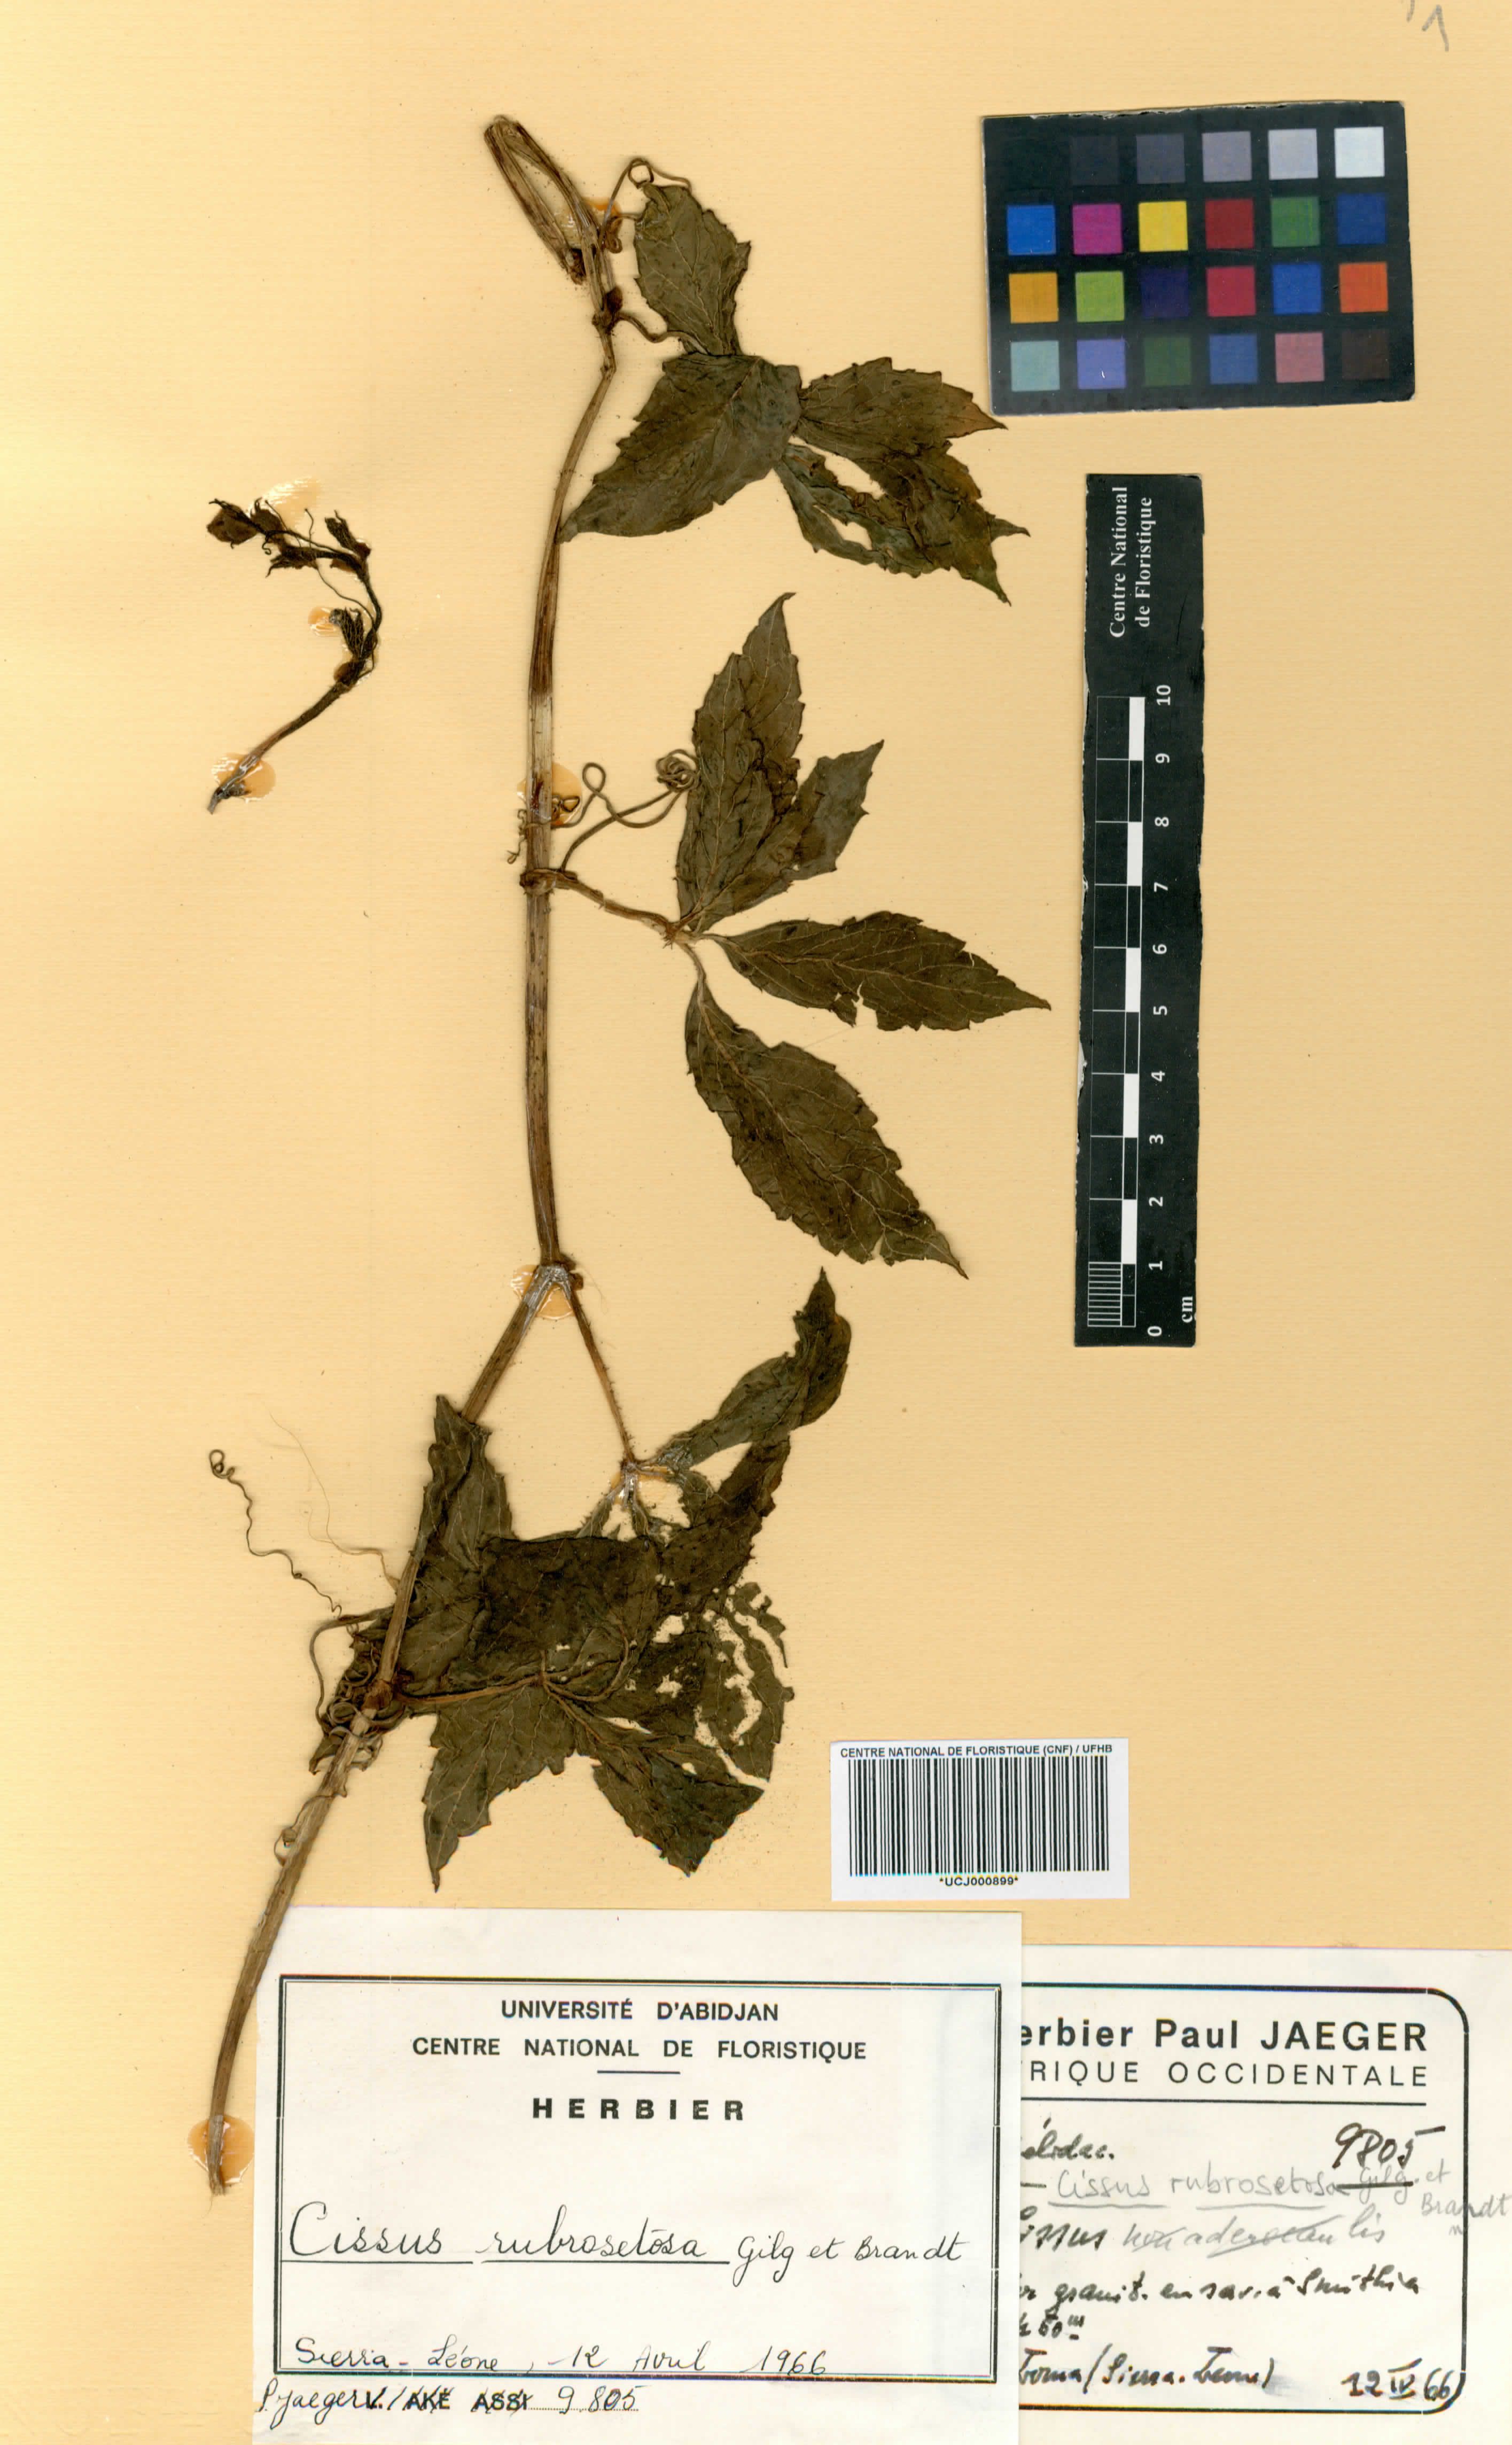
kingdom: Plantae
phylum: Tracheophyta
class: Magnoliopsida
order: Vitales
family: Vitaceae
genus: Cyphostemma
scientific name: Cyphostemma rubrosetosum
